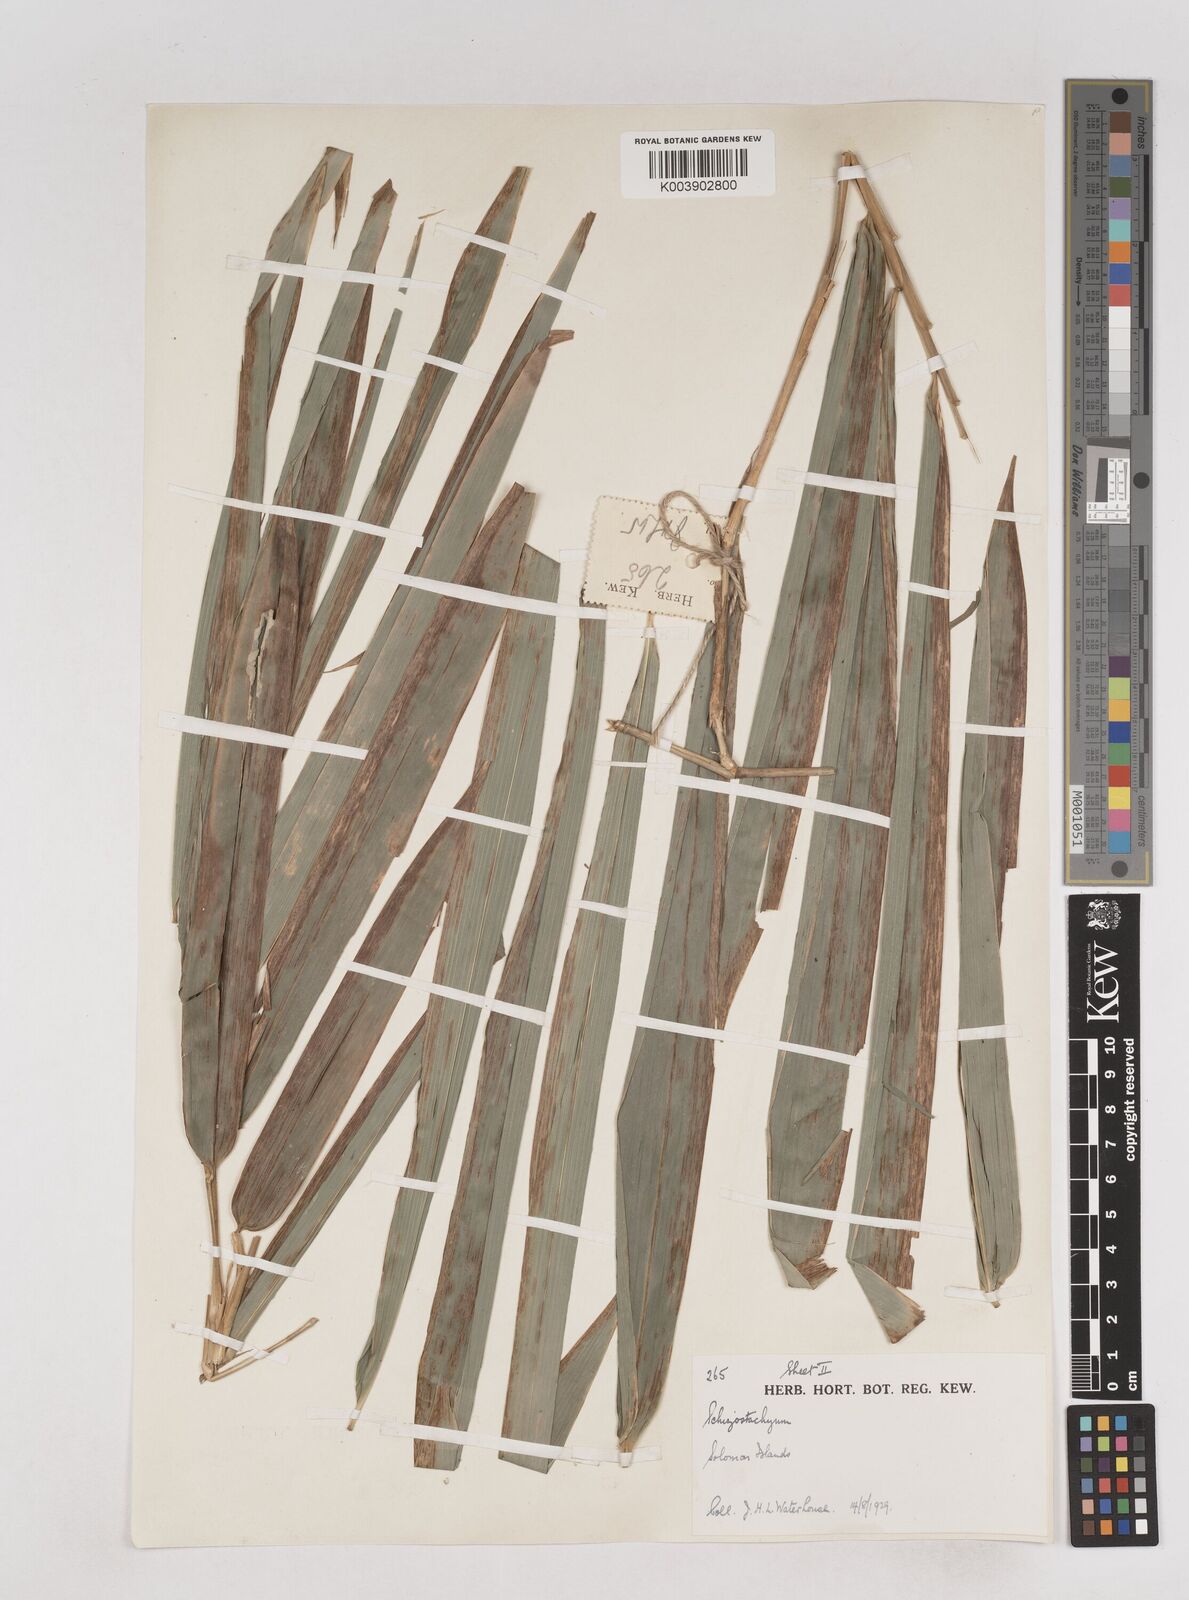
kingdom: Plantae
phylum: Tracheophyta
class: Liliopsida
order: Poales
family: Poaceae
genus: Schizostachyum
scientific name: Schizostachyum
